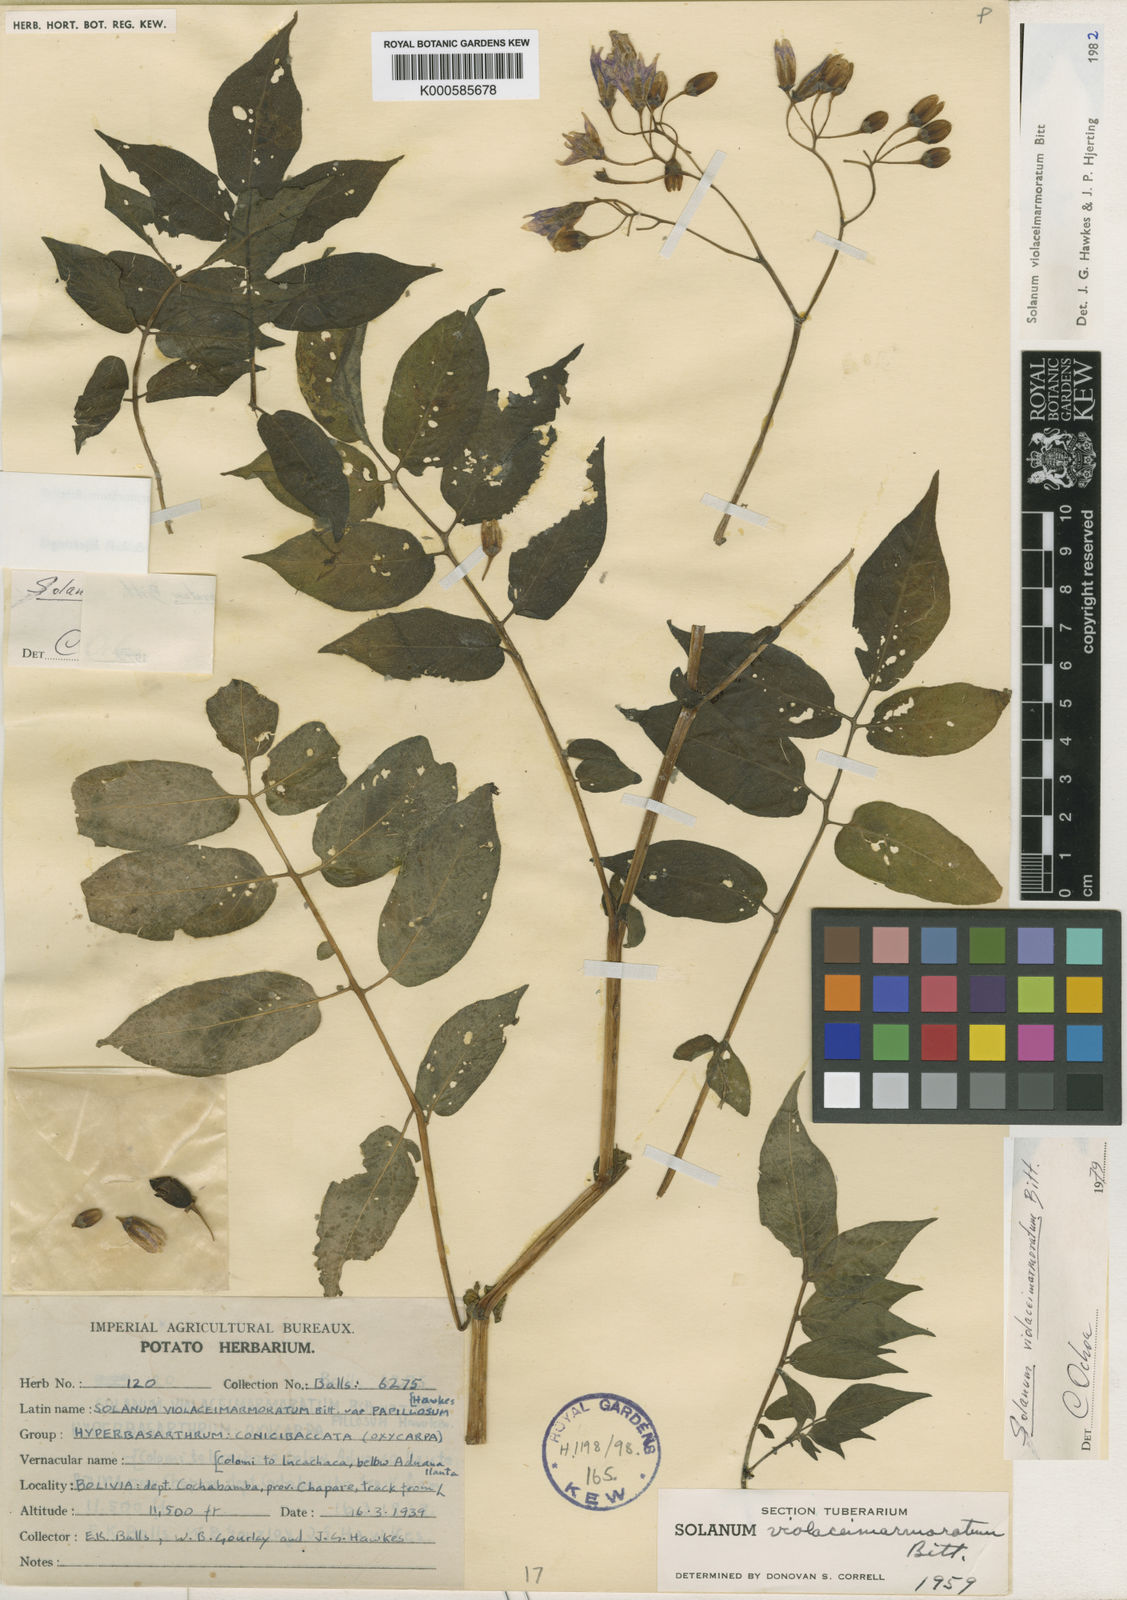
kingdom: Plantae
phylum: Tracheophyta
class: Magnoliopsida
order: Solanales
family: Solanaceae
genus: Solanum
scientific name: Solanum violaceimarmoratum
